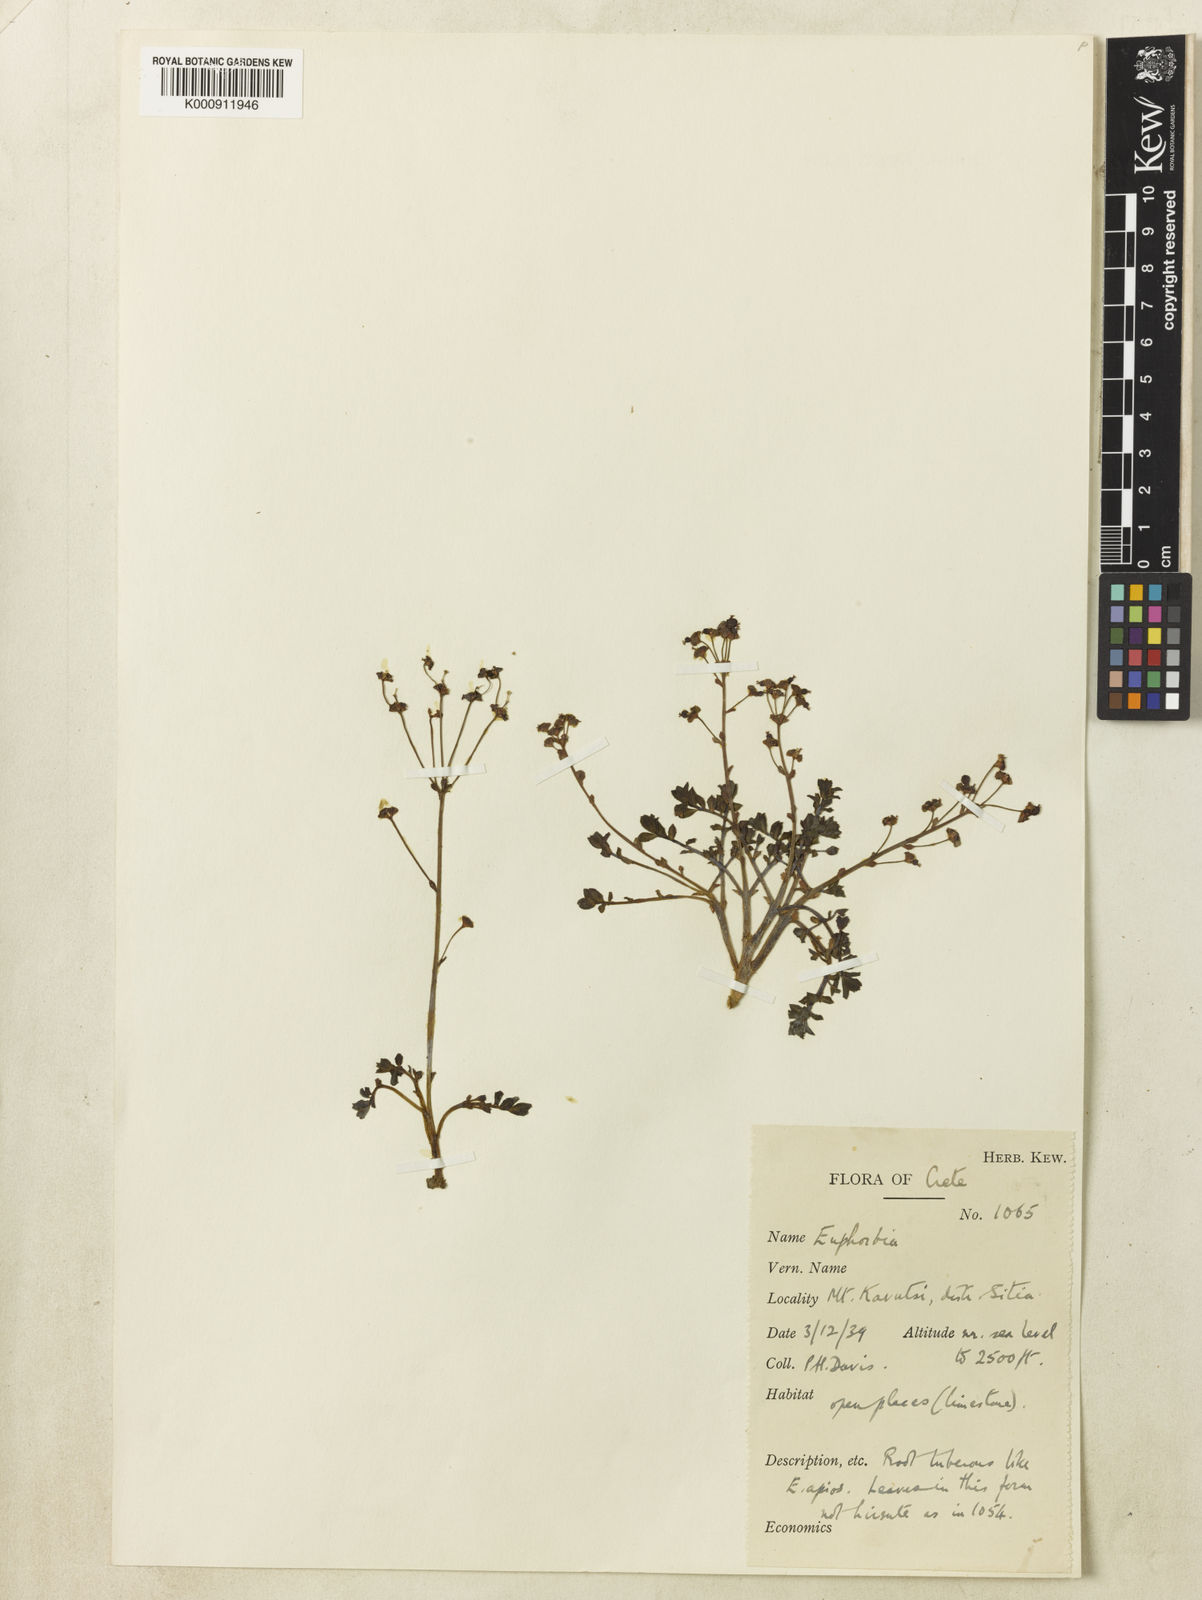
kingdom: Plantae
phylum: Tracheophyta
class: Magnoliopsida
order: Malpighiales
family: Euphorbiaceae
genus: Euphorbia
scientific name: Euphorbia dimorphocaulon
